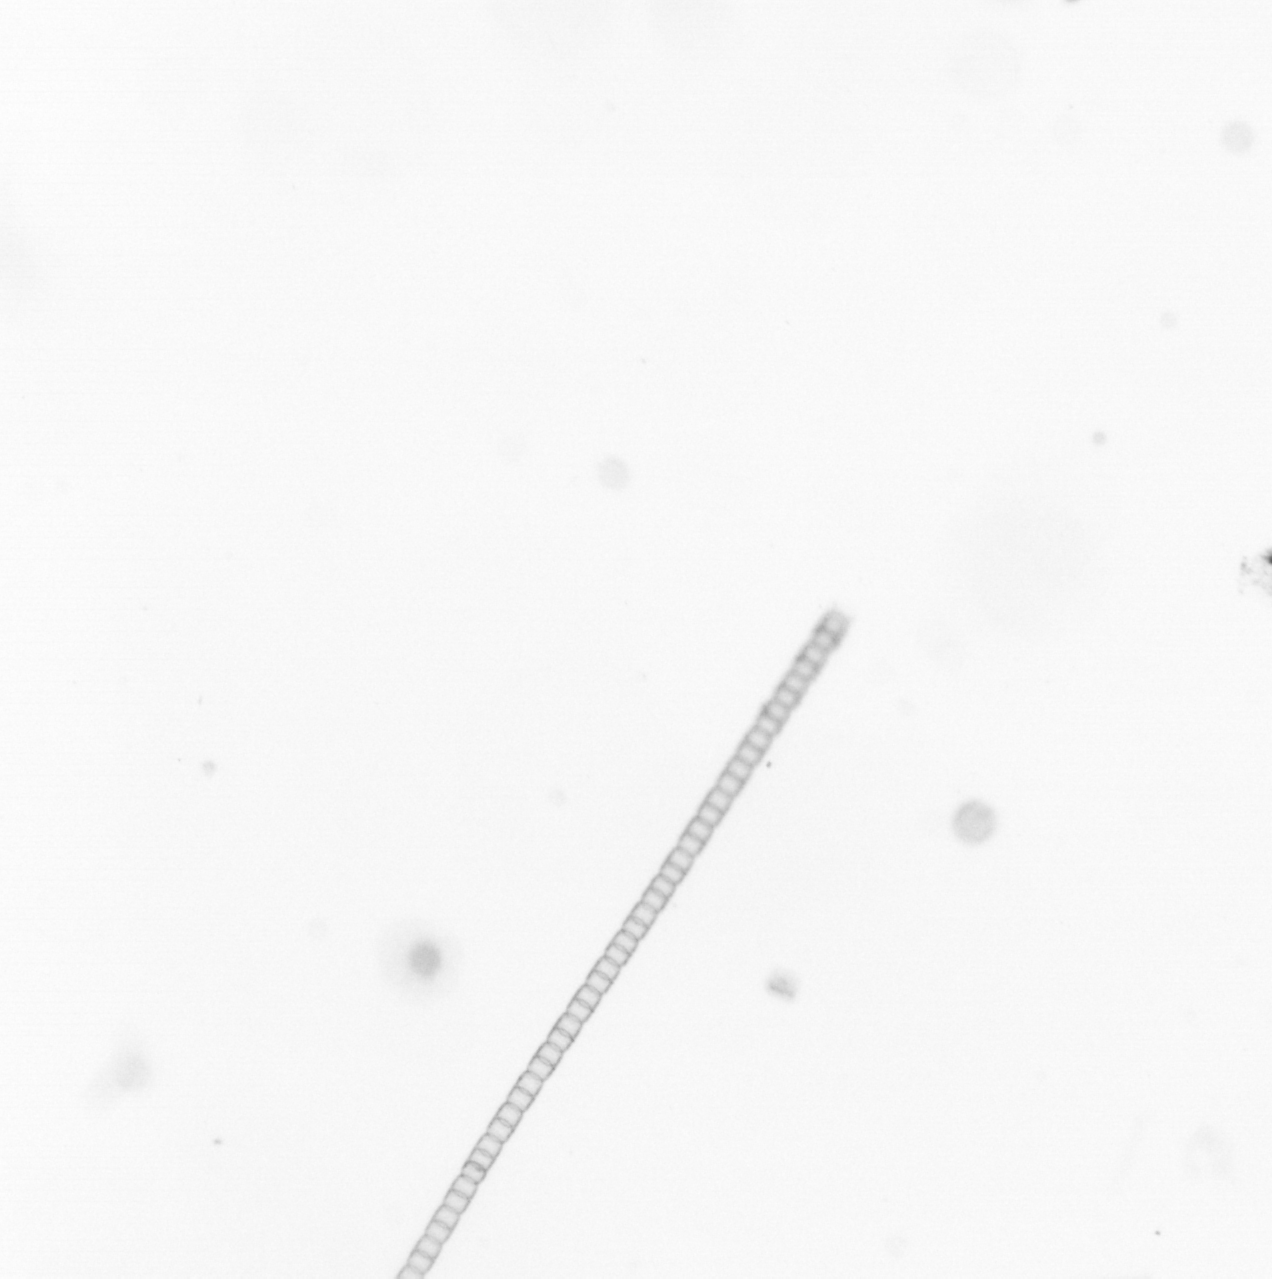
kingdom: Chromista
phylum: Ochrophyta
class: Bacillariophyceae
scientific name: Bacillariophyceae
